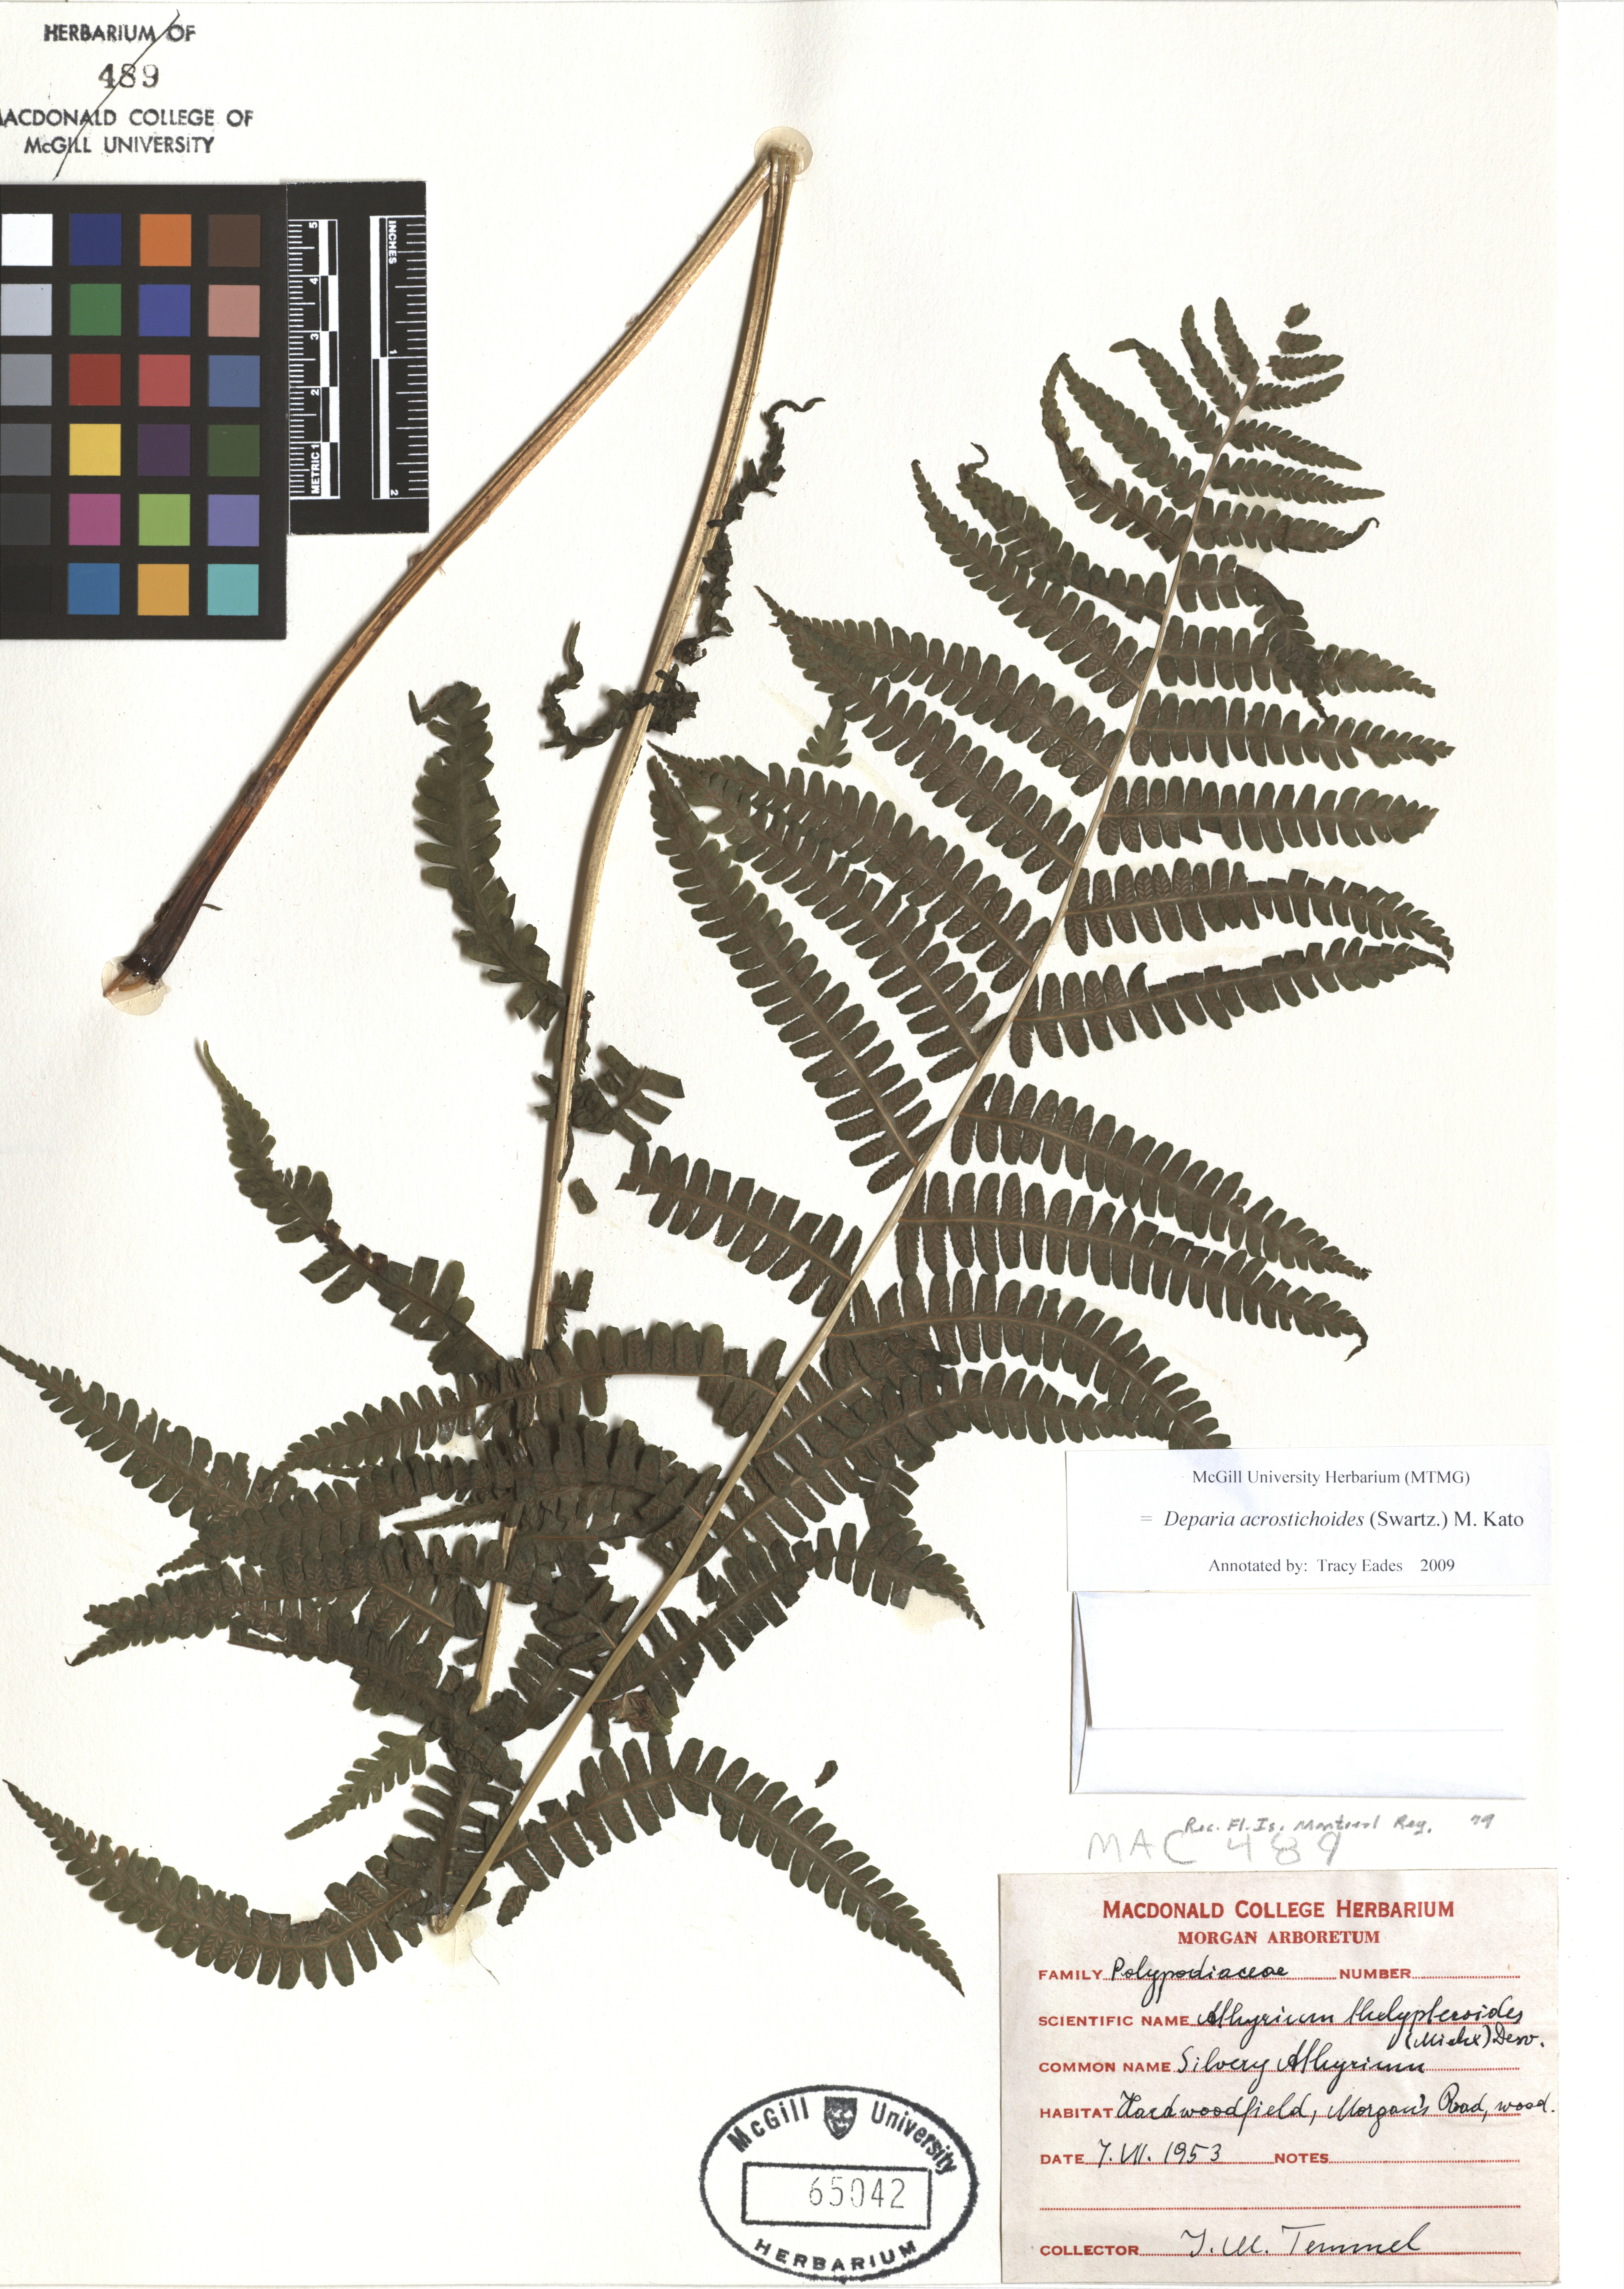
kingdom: Plantae
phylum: Tracheophyta
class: Polypodiopsida
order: Polypodiales
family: Athyriaceae
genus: Deparia
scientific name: Deparia acrostichoides
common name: Silver false spleenwort
